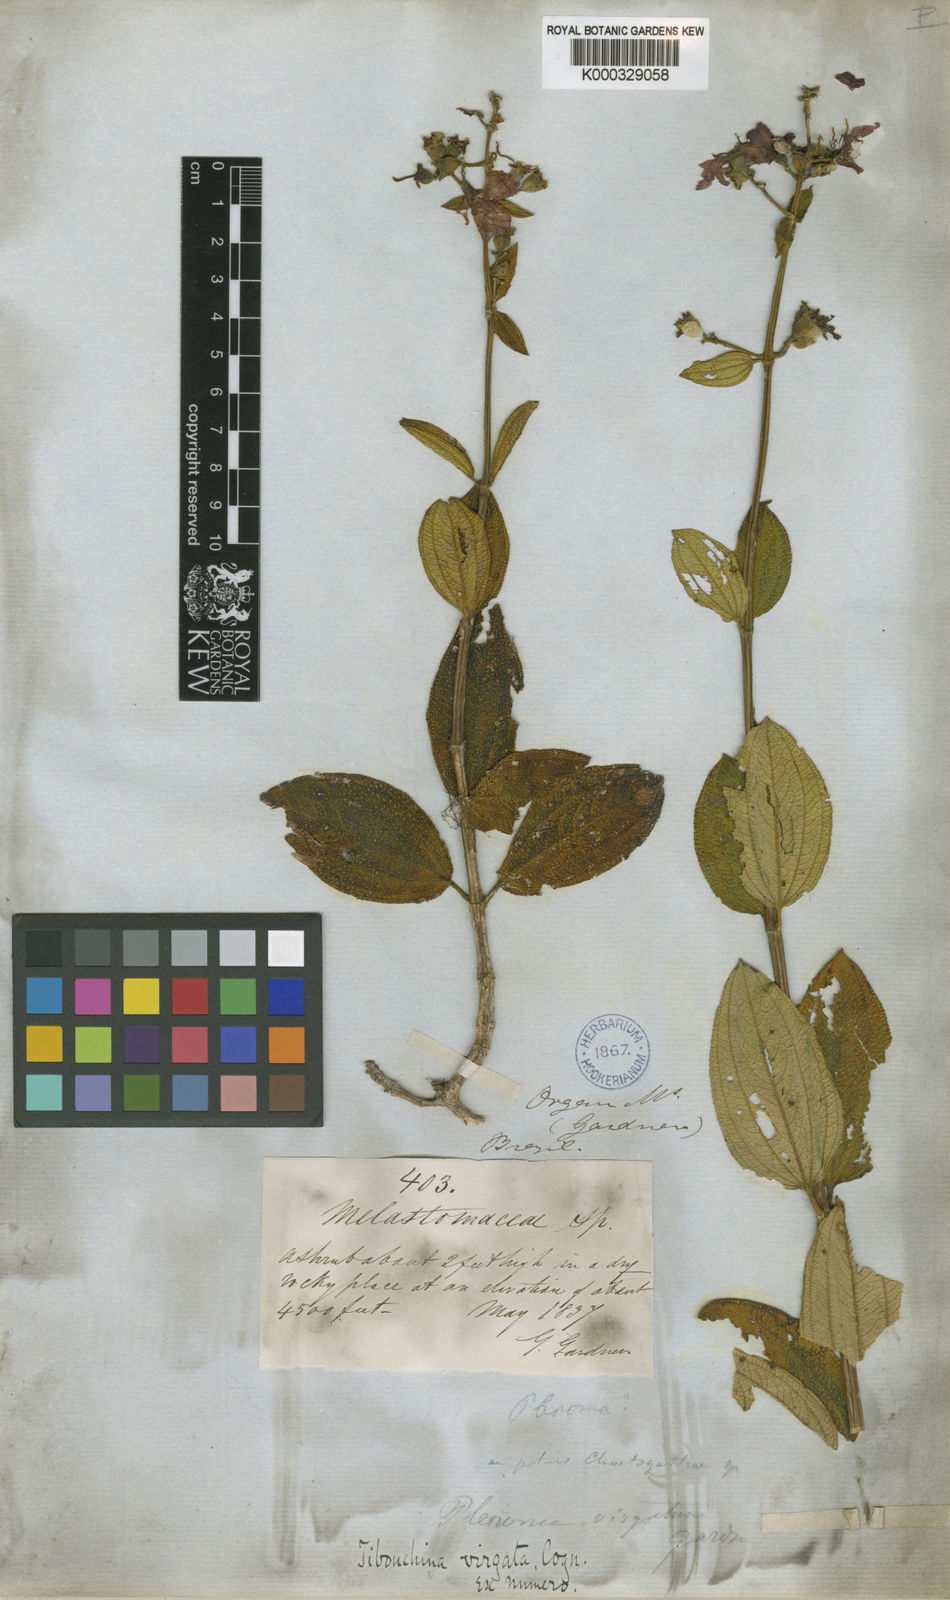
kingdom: Plantae
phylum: Tracheophyta
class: Magnoliopsida
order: Myrtales
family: Melastomataceae
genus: Pleroma
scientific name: Pleroma virgatum
